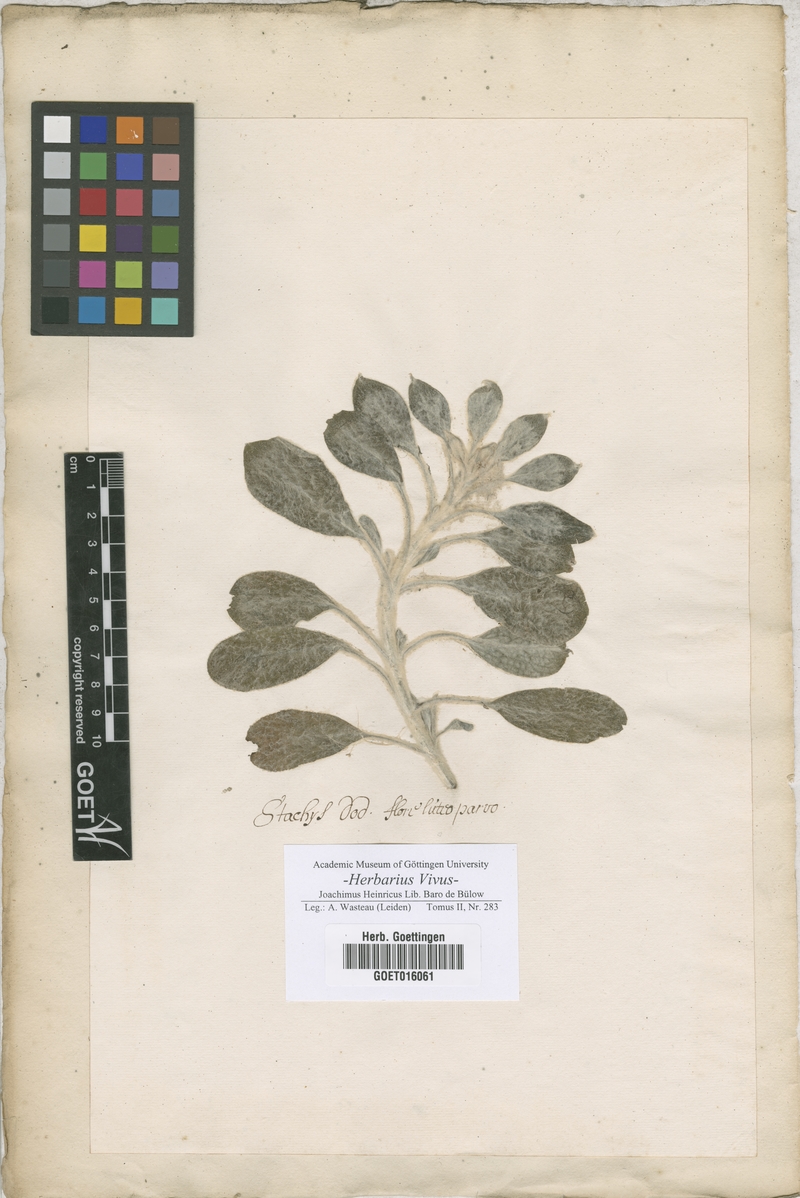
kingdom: Plantae
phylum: Tracheophyta
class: Magnoliopsida
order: Lamiales
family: Lamiaceae
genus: Stachys
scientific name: Stachys
